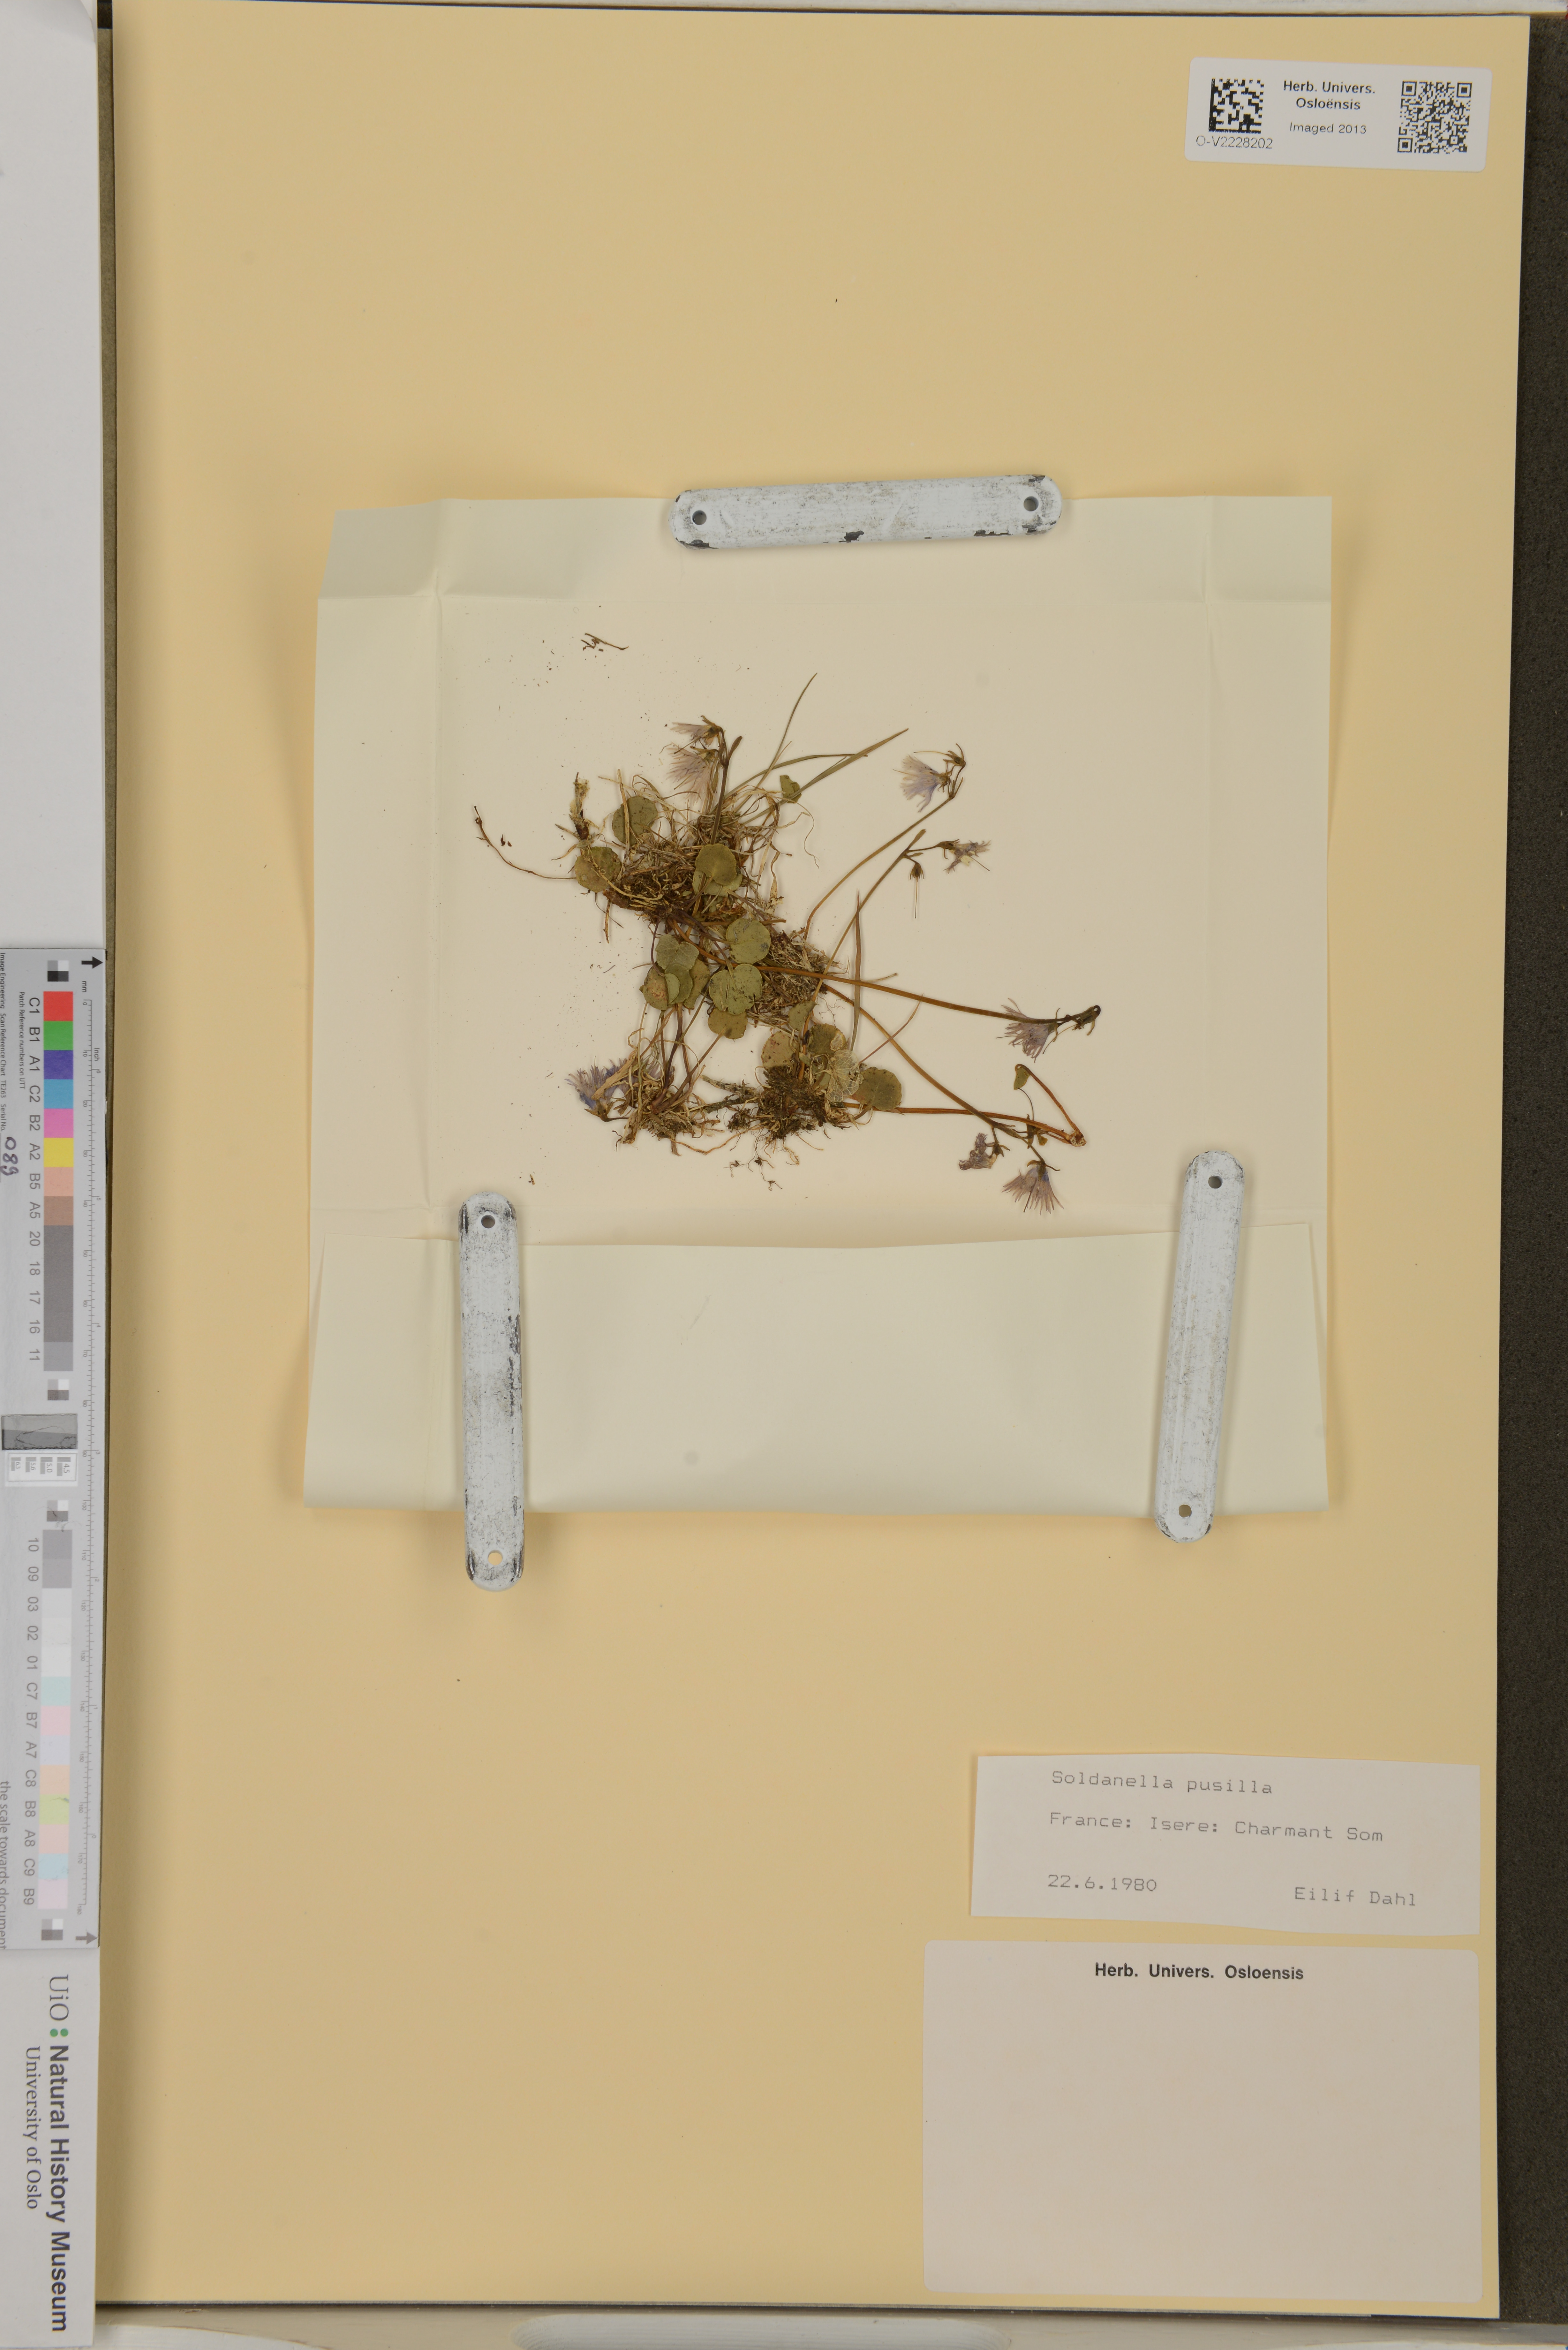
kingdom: Plantae
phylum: Tracheophyta
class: Magnoliopsida
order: Ericales
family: Primulaceae
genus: Soldanella
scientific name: Soldanella pusilla
